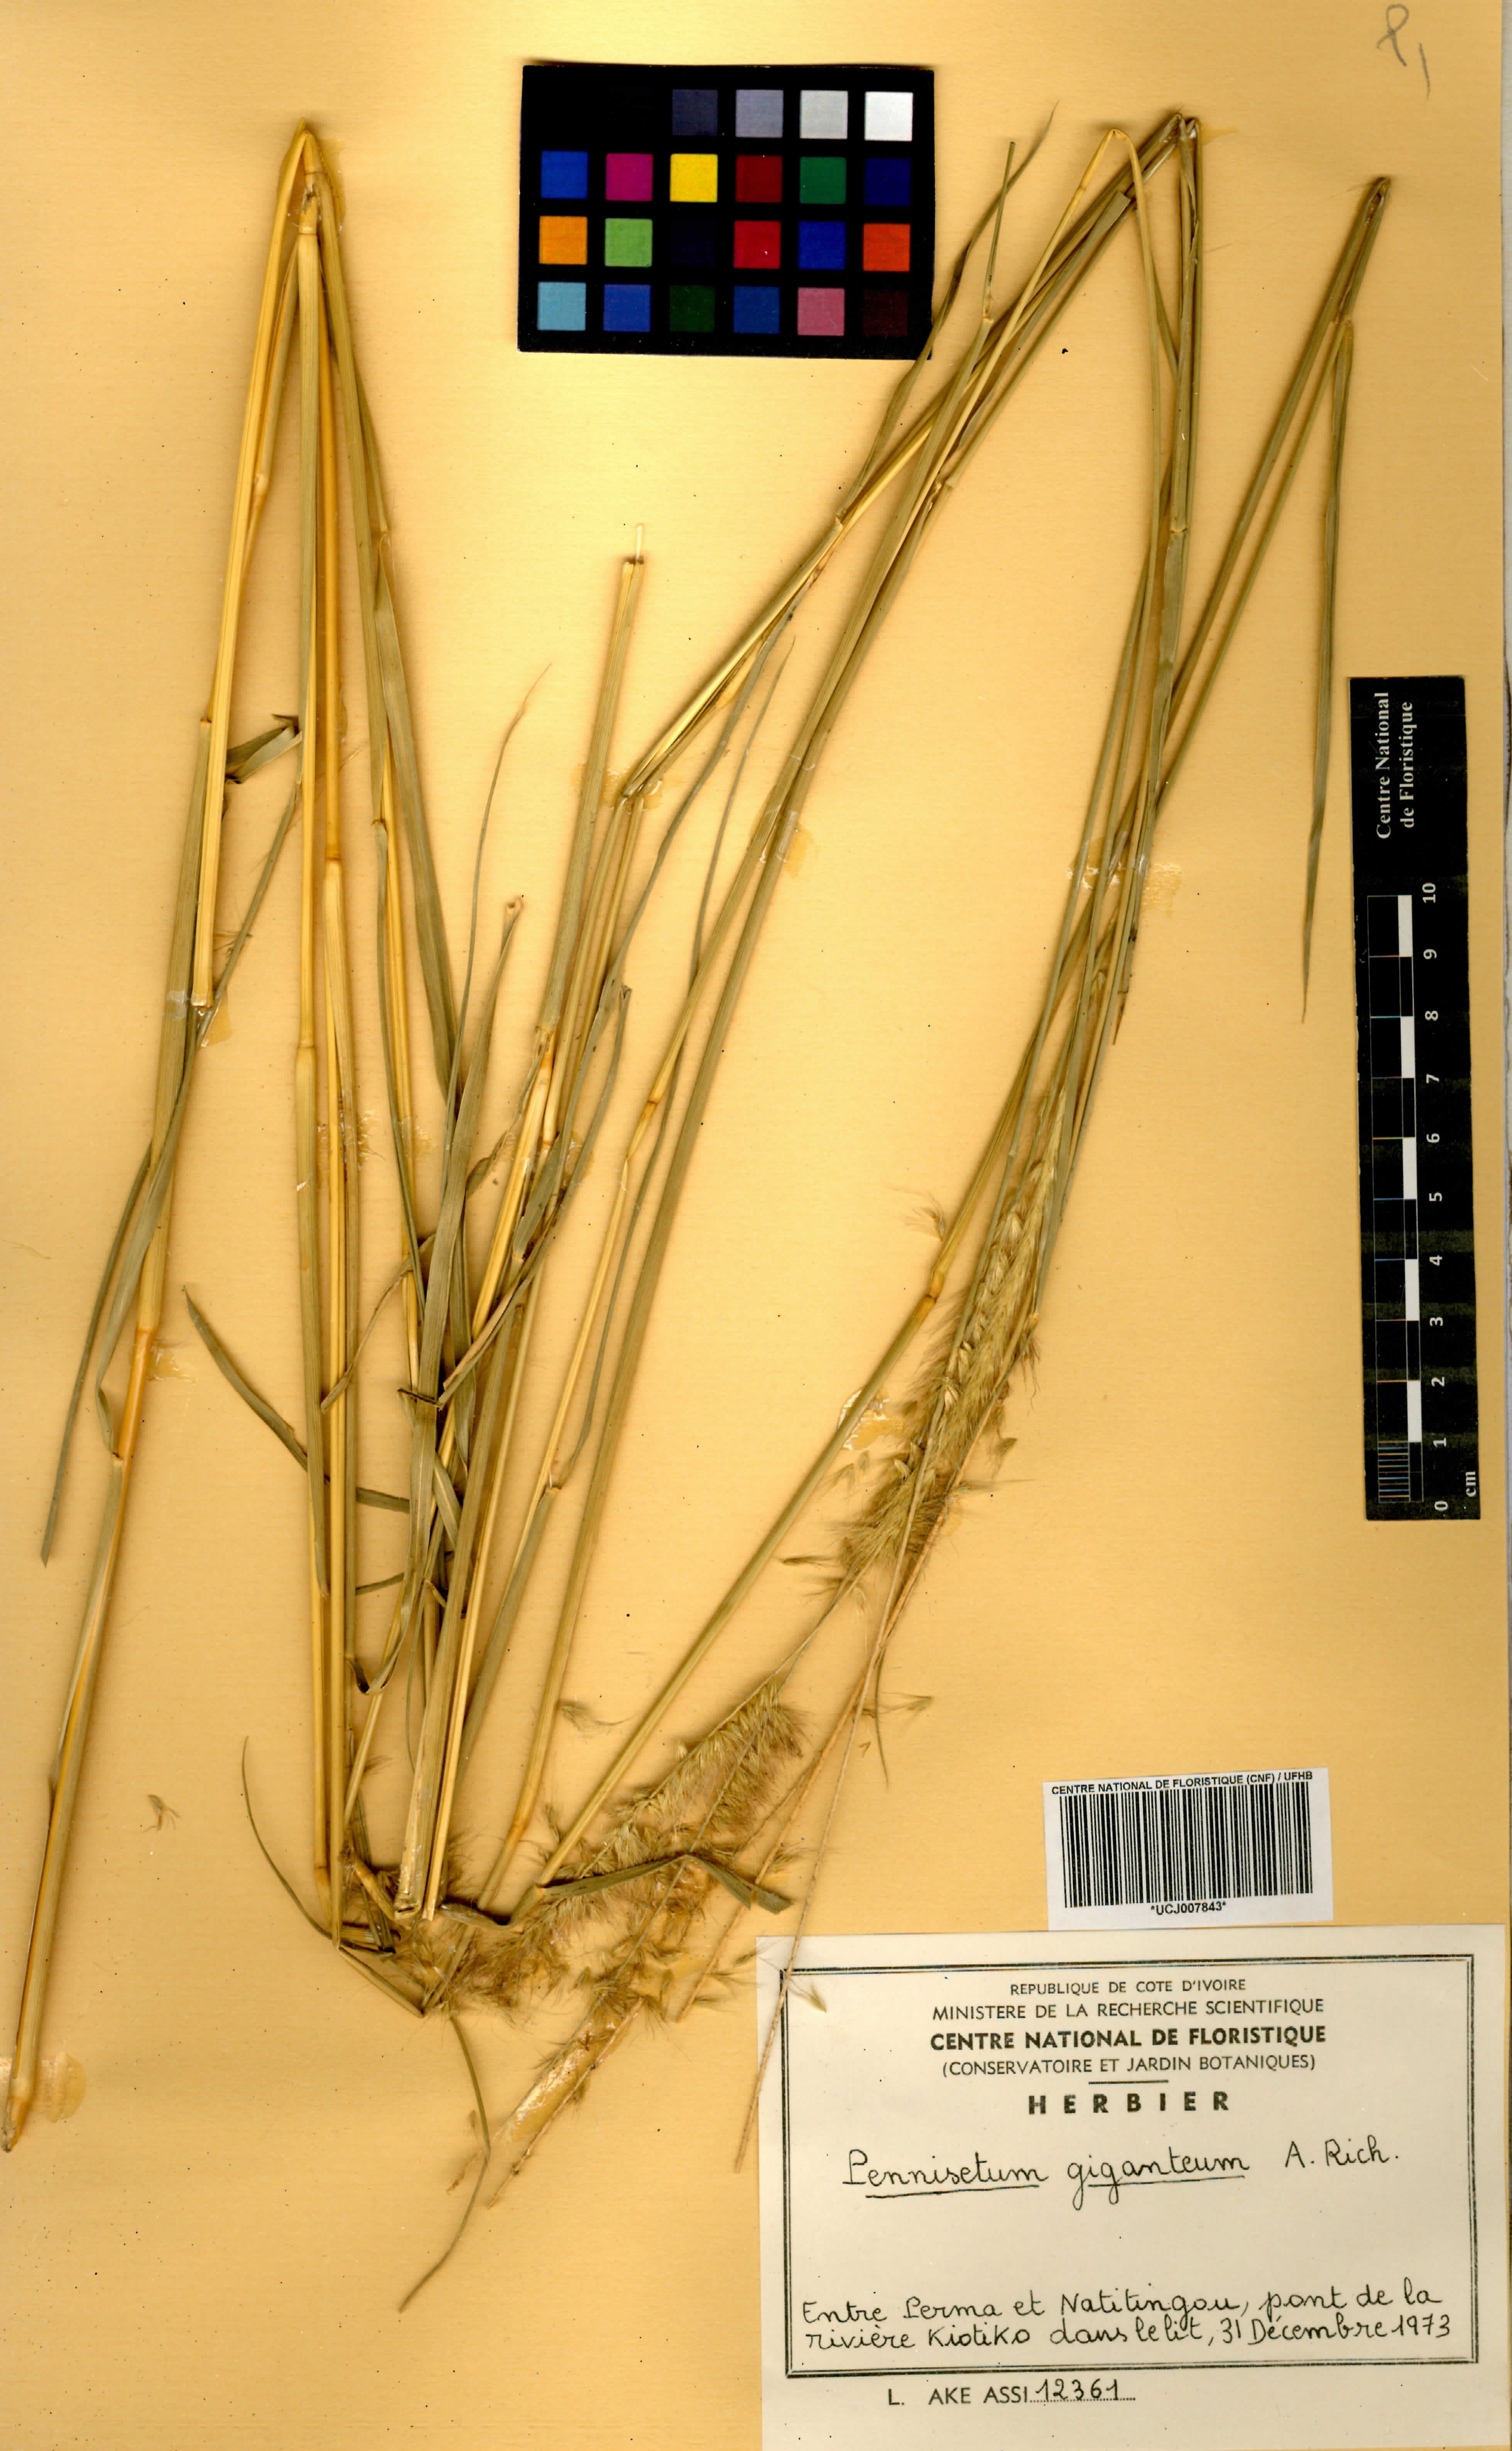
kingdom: Plantae
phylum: Tracheophyta
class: Liliopsida
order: Poales
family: Poaceae
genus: Cenchrus
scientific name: Cenchrus caudatus
